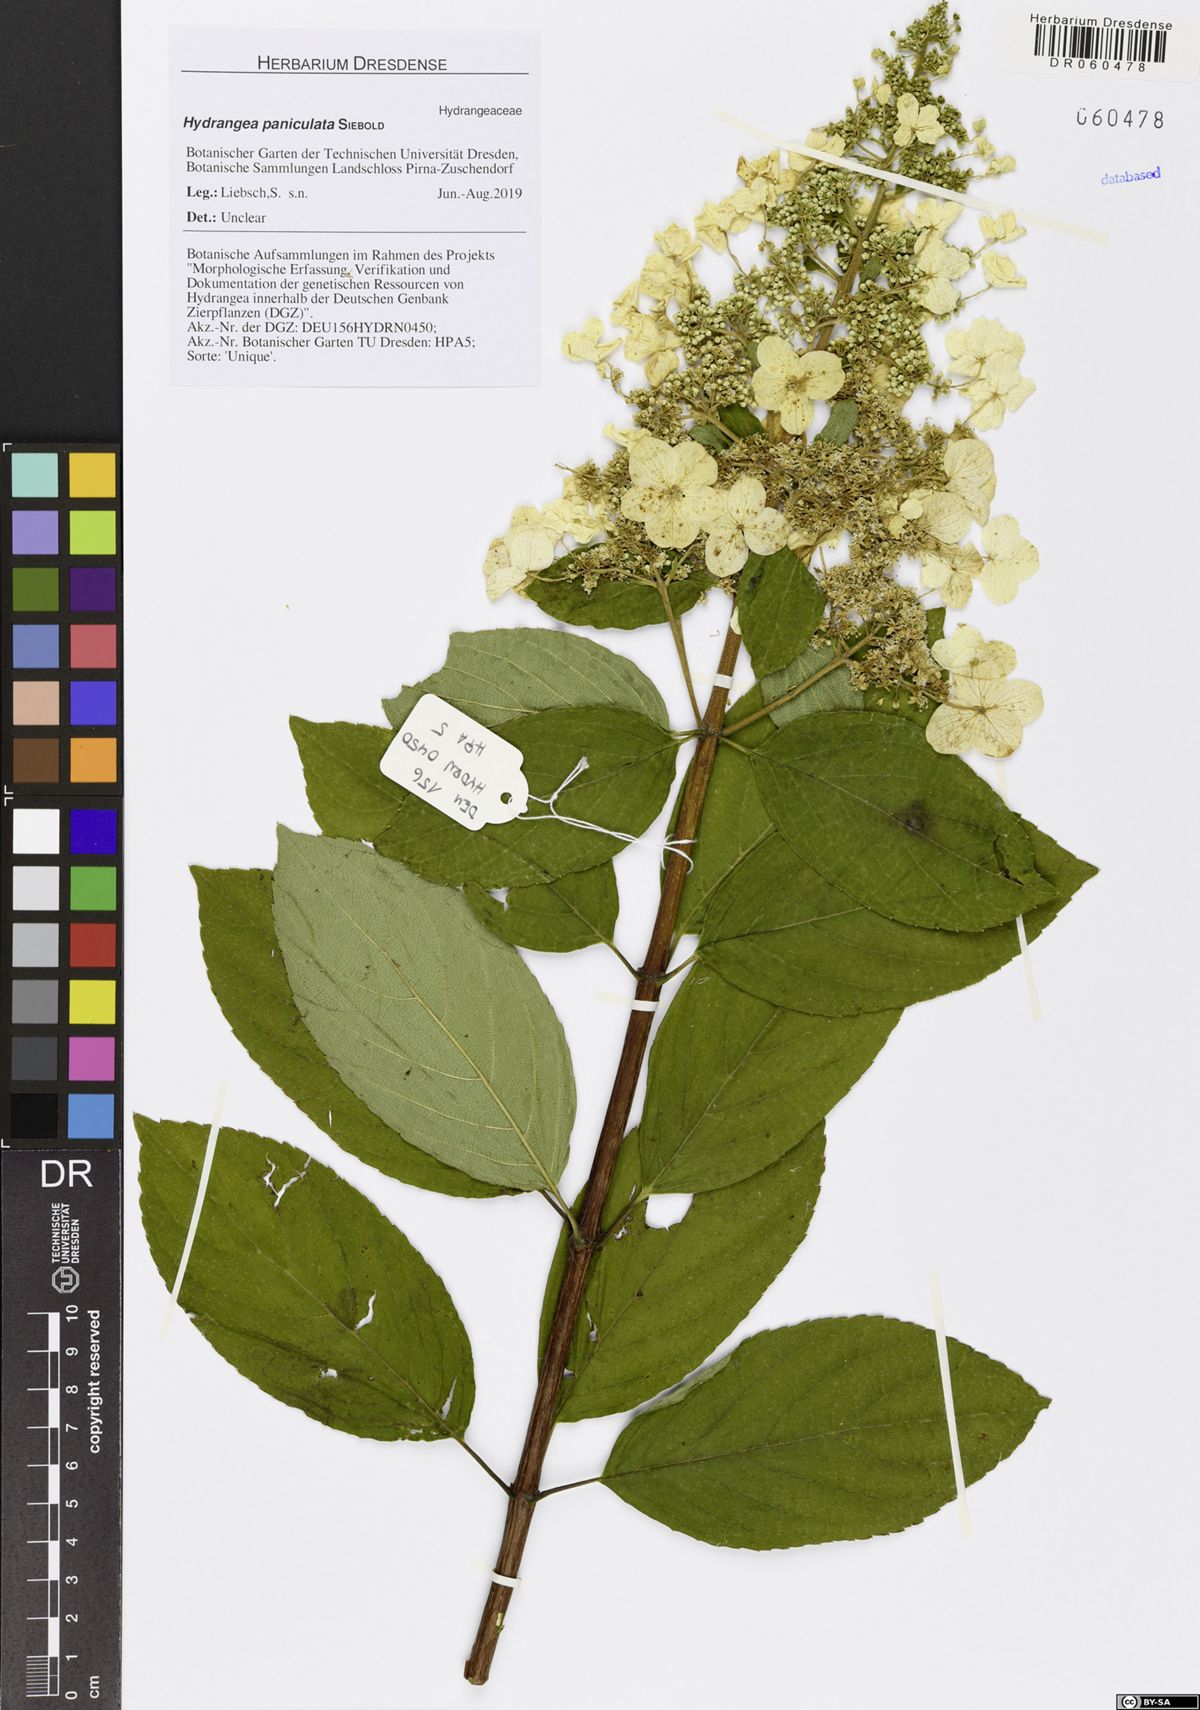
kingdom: Plantae
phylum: Tracheophyta
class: Magnoliopsida
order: Cornales
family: Hydrangeaceae
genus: Hydrangea
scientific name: Hydrangea paniculata
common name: Panicled hydrangea
